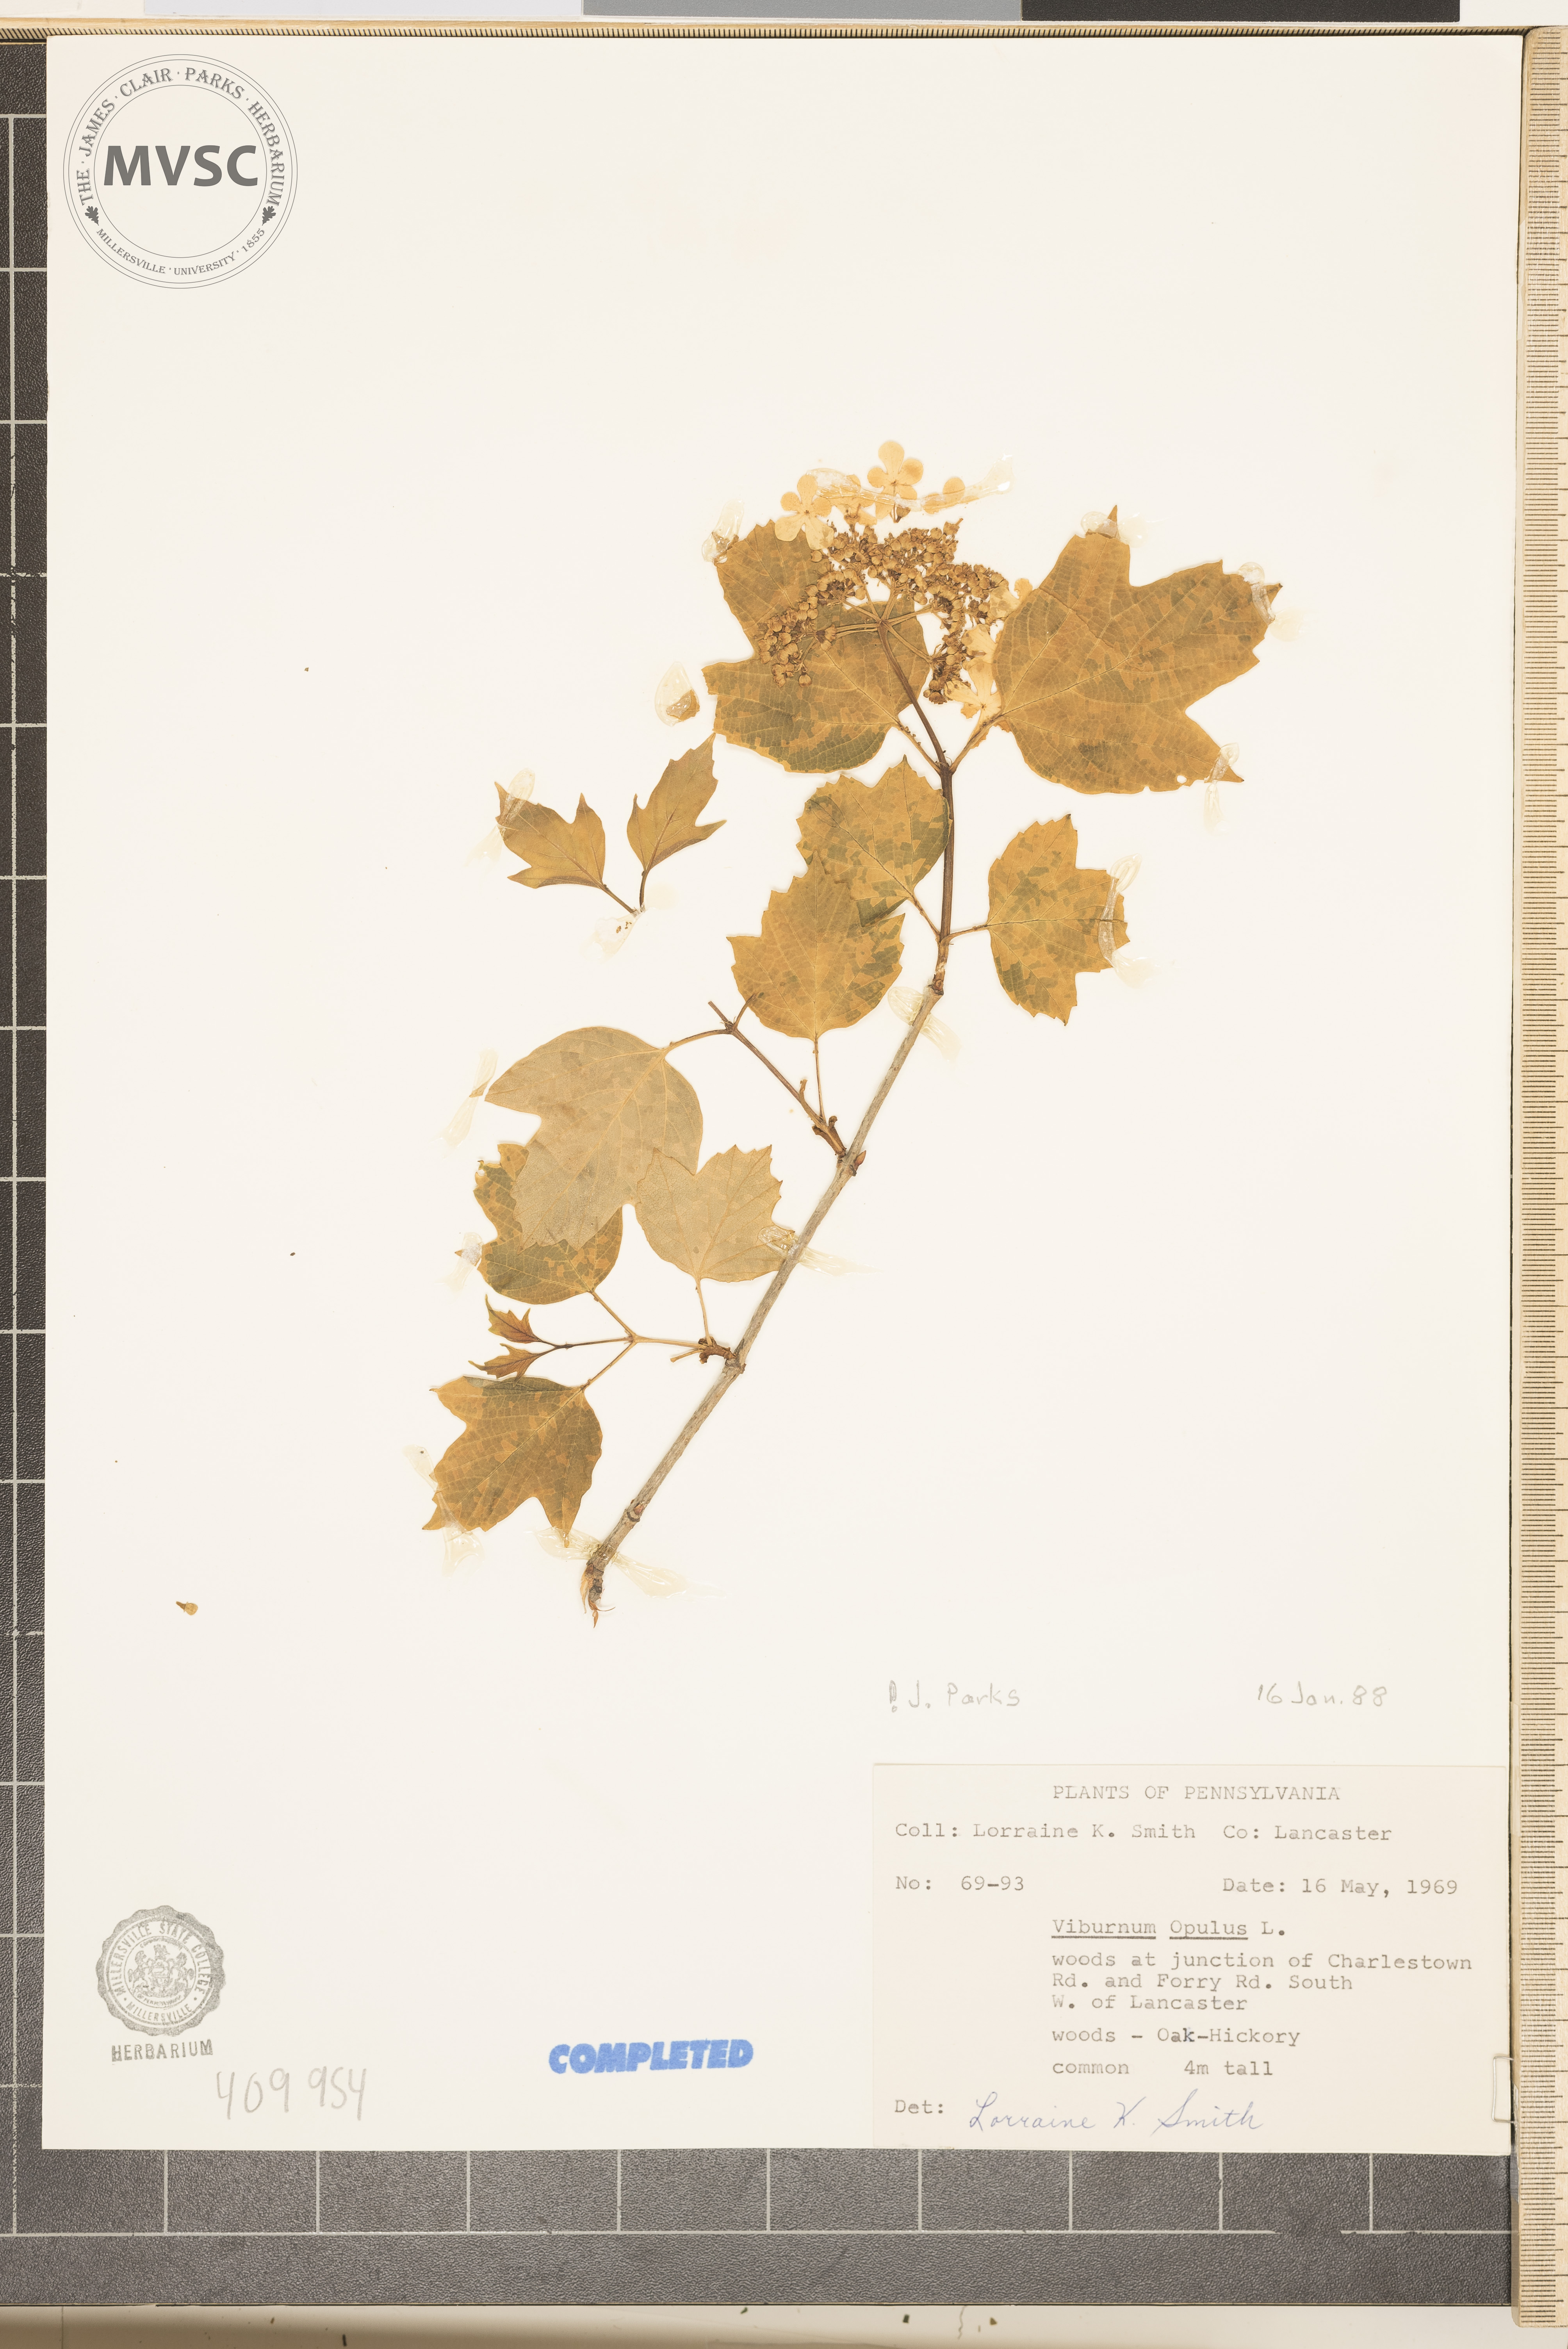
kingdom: Plantae
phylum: Tracheophyta
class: Magnoliopsida
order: Dipsacales
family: Viburnaceae
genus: Viburnum
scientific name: Viburnum opulus
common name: Guelder-rose
